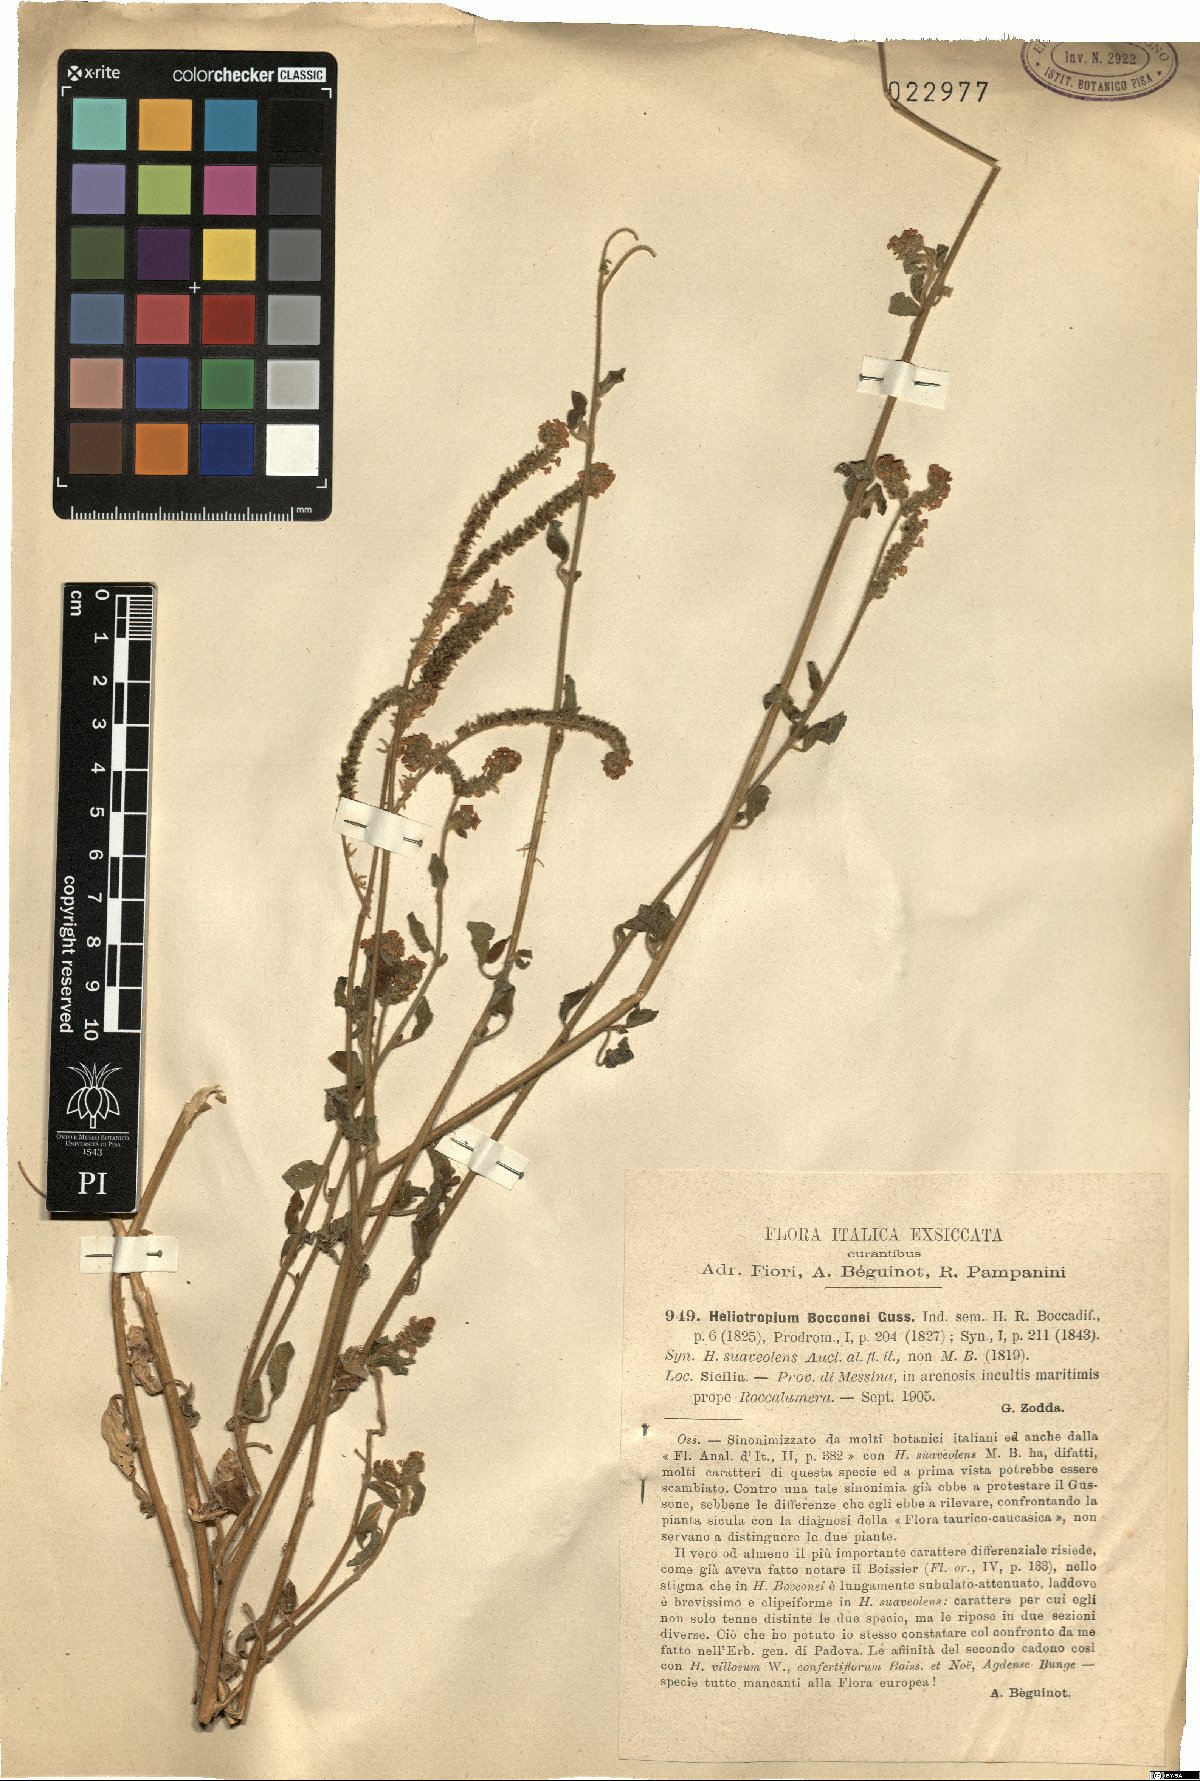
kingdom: Plantae
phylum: Tracheophyta
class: Magnoliopsida
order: Boraginales
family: Heliotropiaceae
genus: Heliotropium
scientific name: Heliotropium suaveolens
